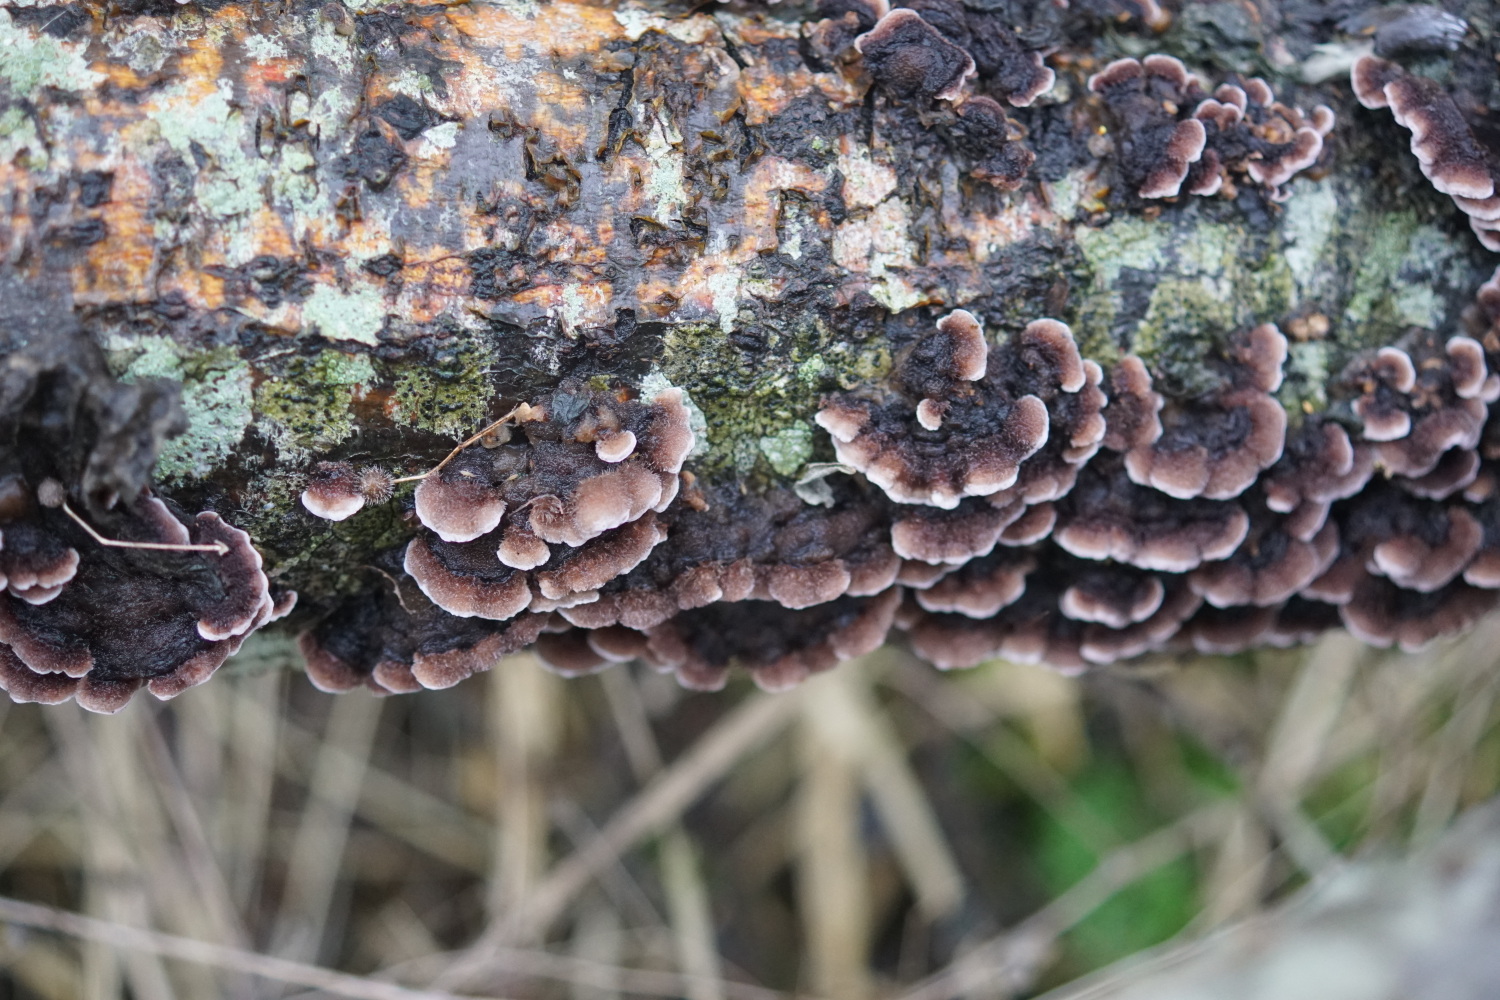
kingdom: Fungi
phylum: Basidiomycota
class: Agaricomycetes
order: Agaricales
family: Cyphellaceae
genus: Chondrostereum
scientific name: Chondrostereum purpureum
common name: purpurlædersvamp
